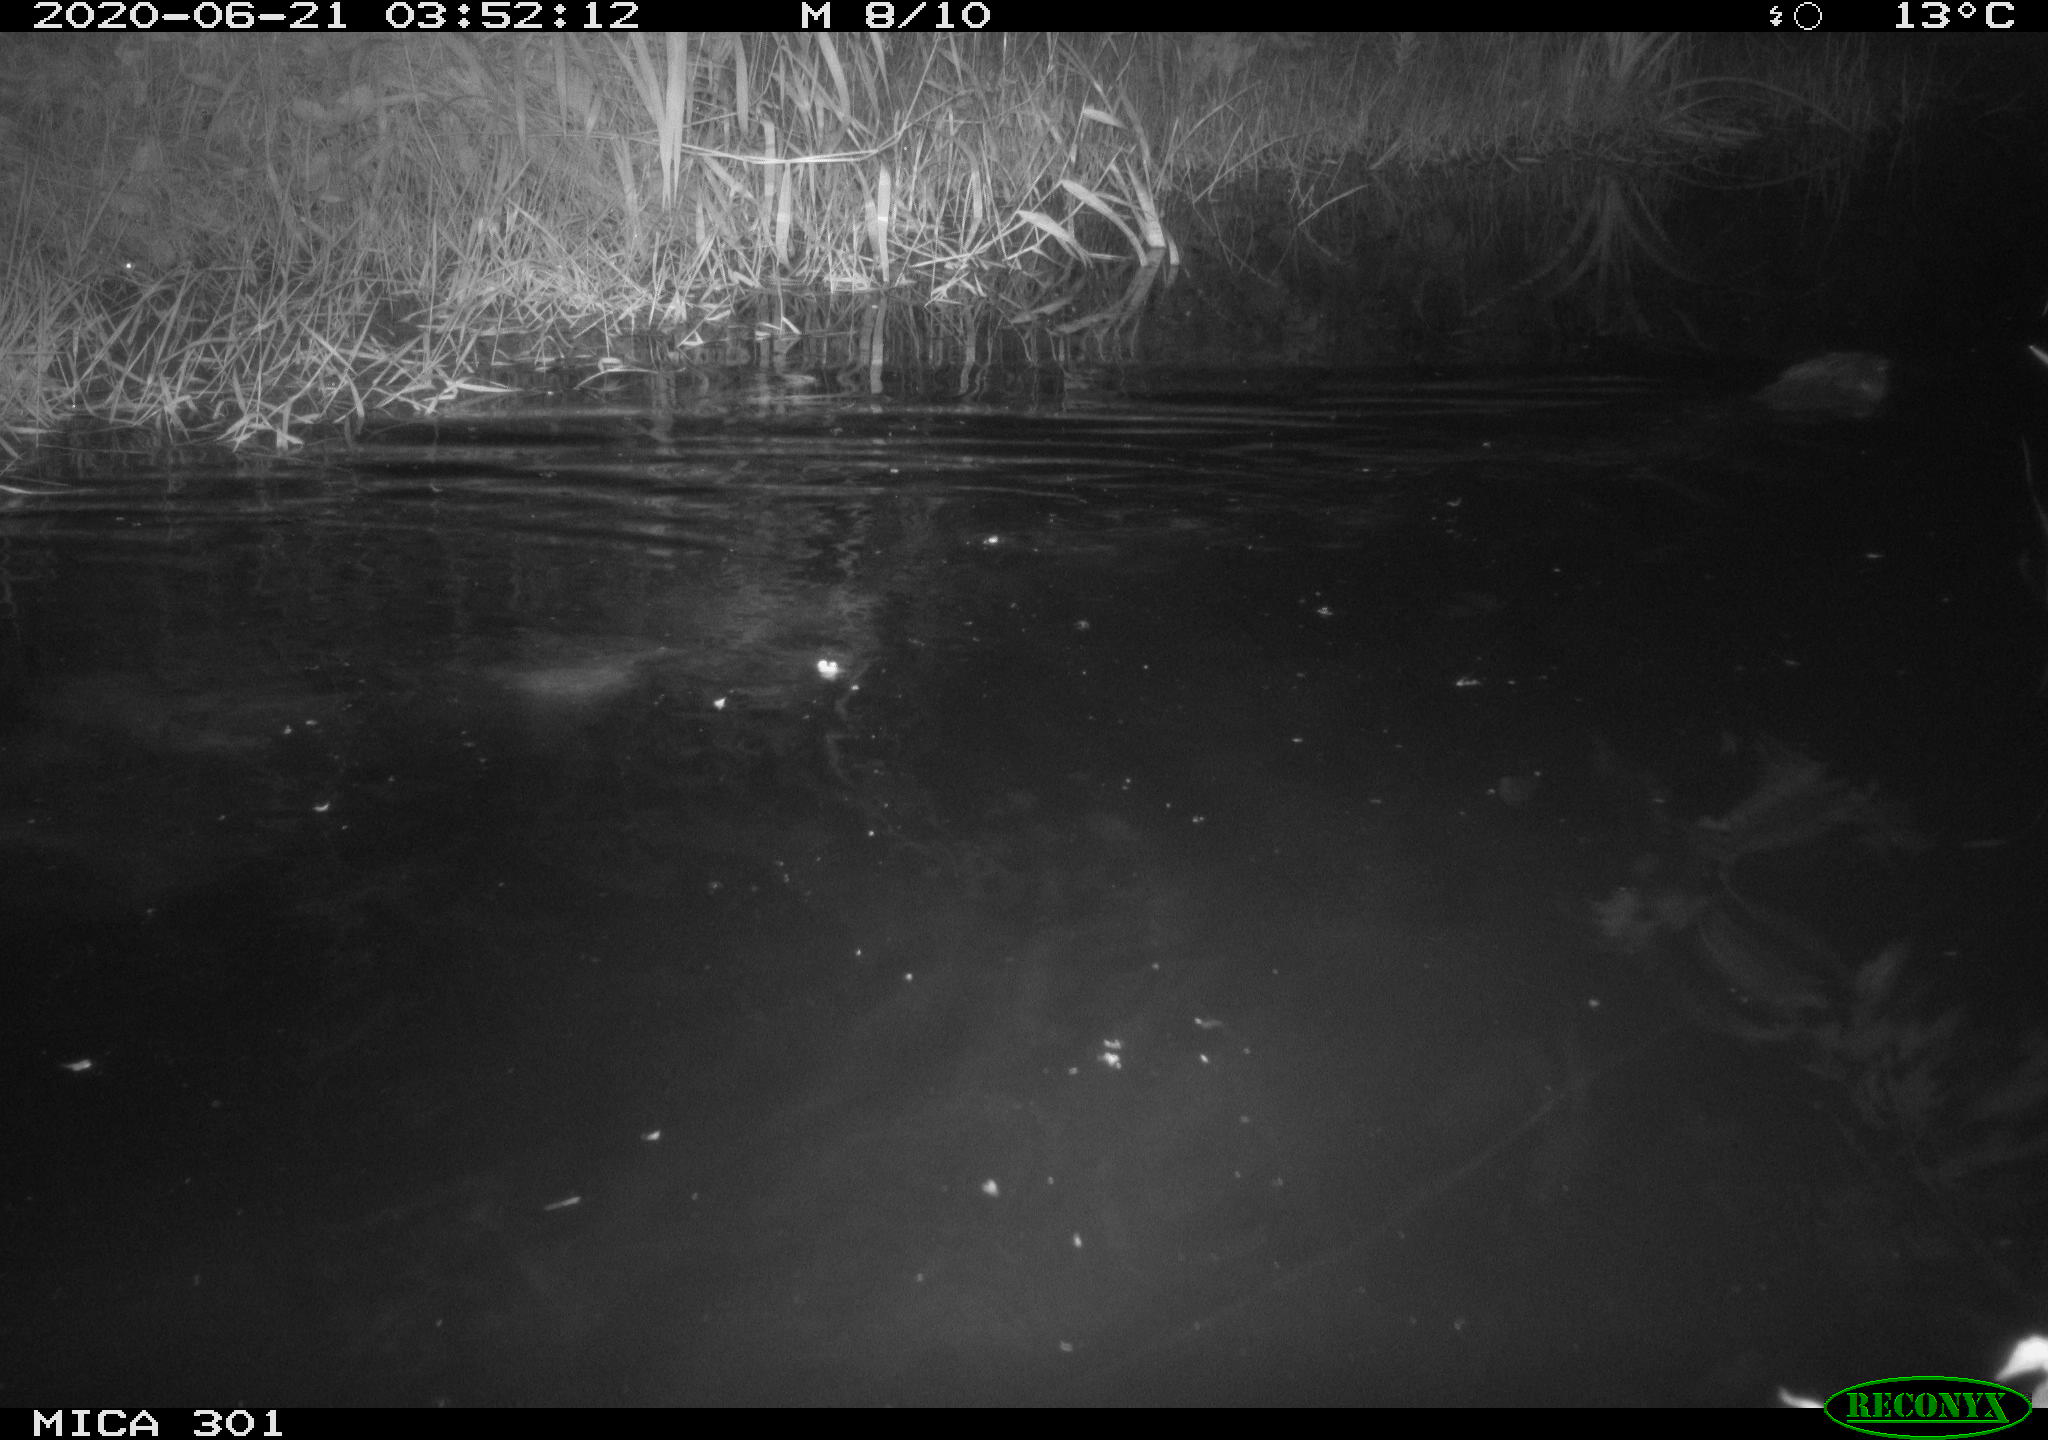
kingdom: Animalia
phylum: Chordata
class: Mammalia
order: Rodentia
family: Castoridae
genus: Castor
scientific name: Castor fiber
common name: Eurasian beaver
